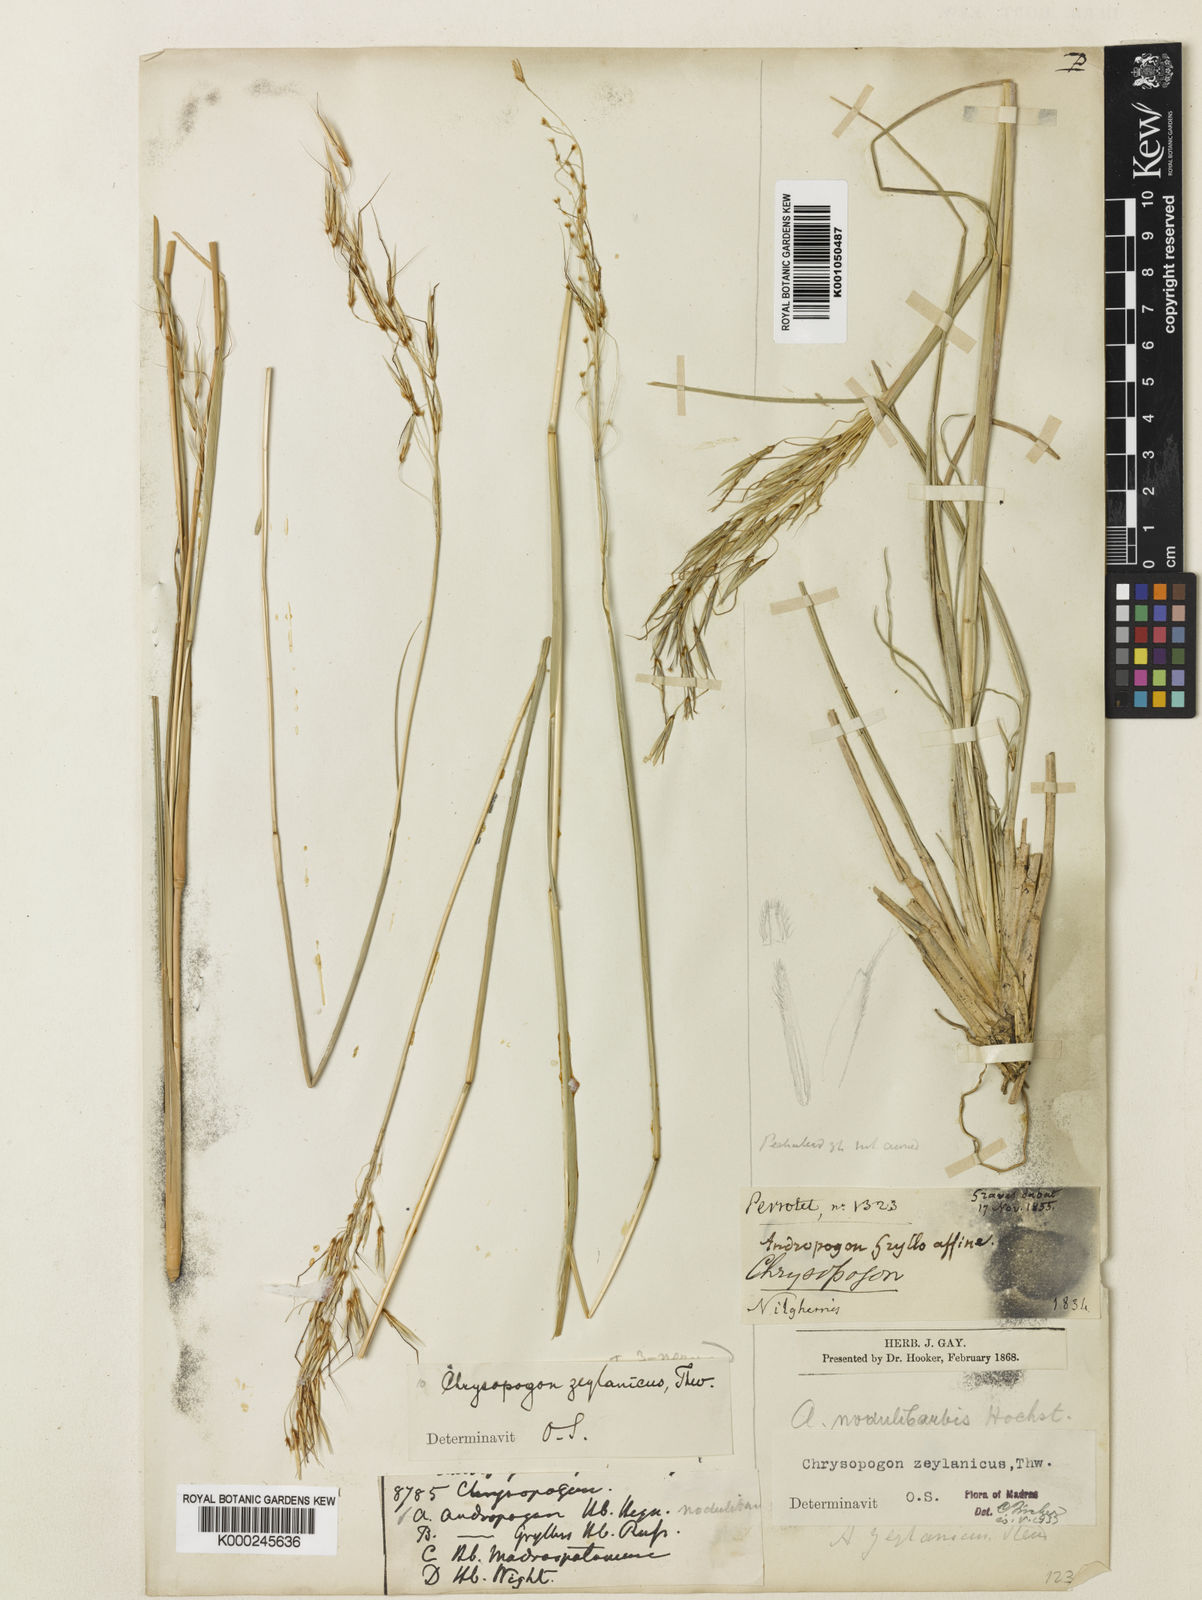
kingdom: Plantae
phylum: Tracheophyta
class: Liliopsida
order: Poales
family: Poaceae
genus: Chrysopogon
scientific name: Chrysopogon nodulibarbis
